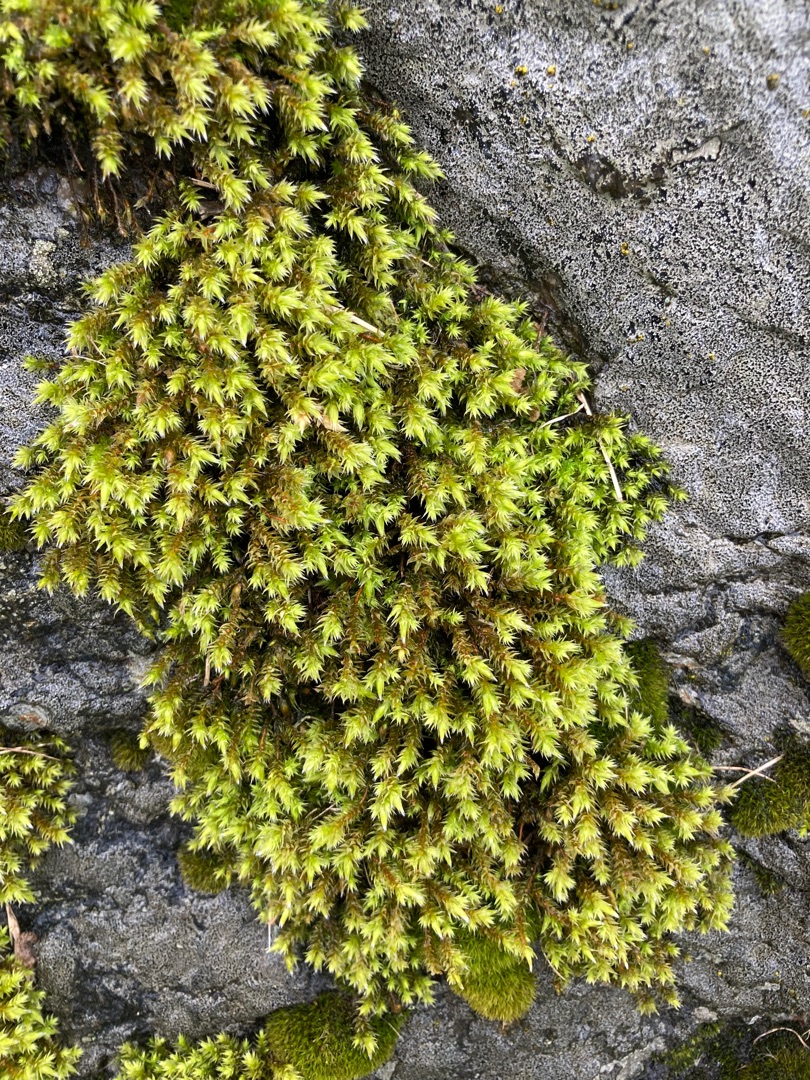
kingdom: Plantae
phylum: Bryophyta
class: Bryopsida
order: Hedwigiales
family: Hedwigiaceae
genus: Hedwigia
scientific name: Hedwigia
